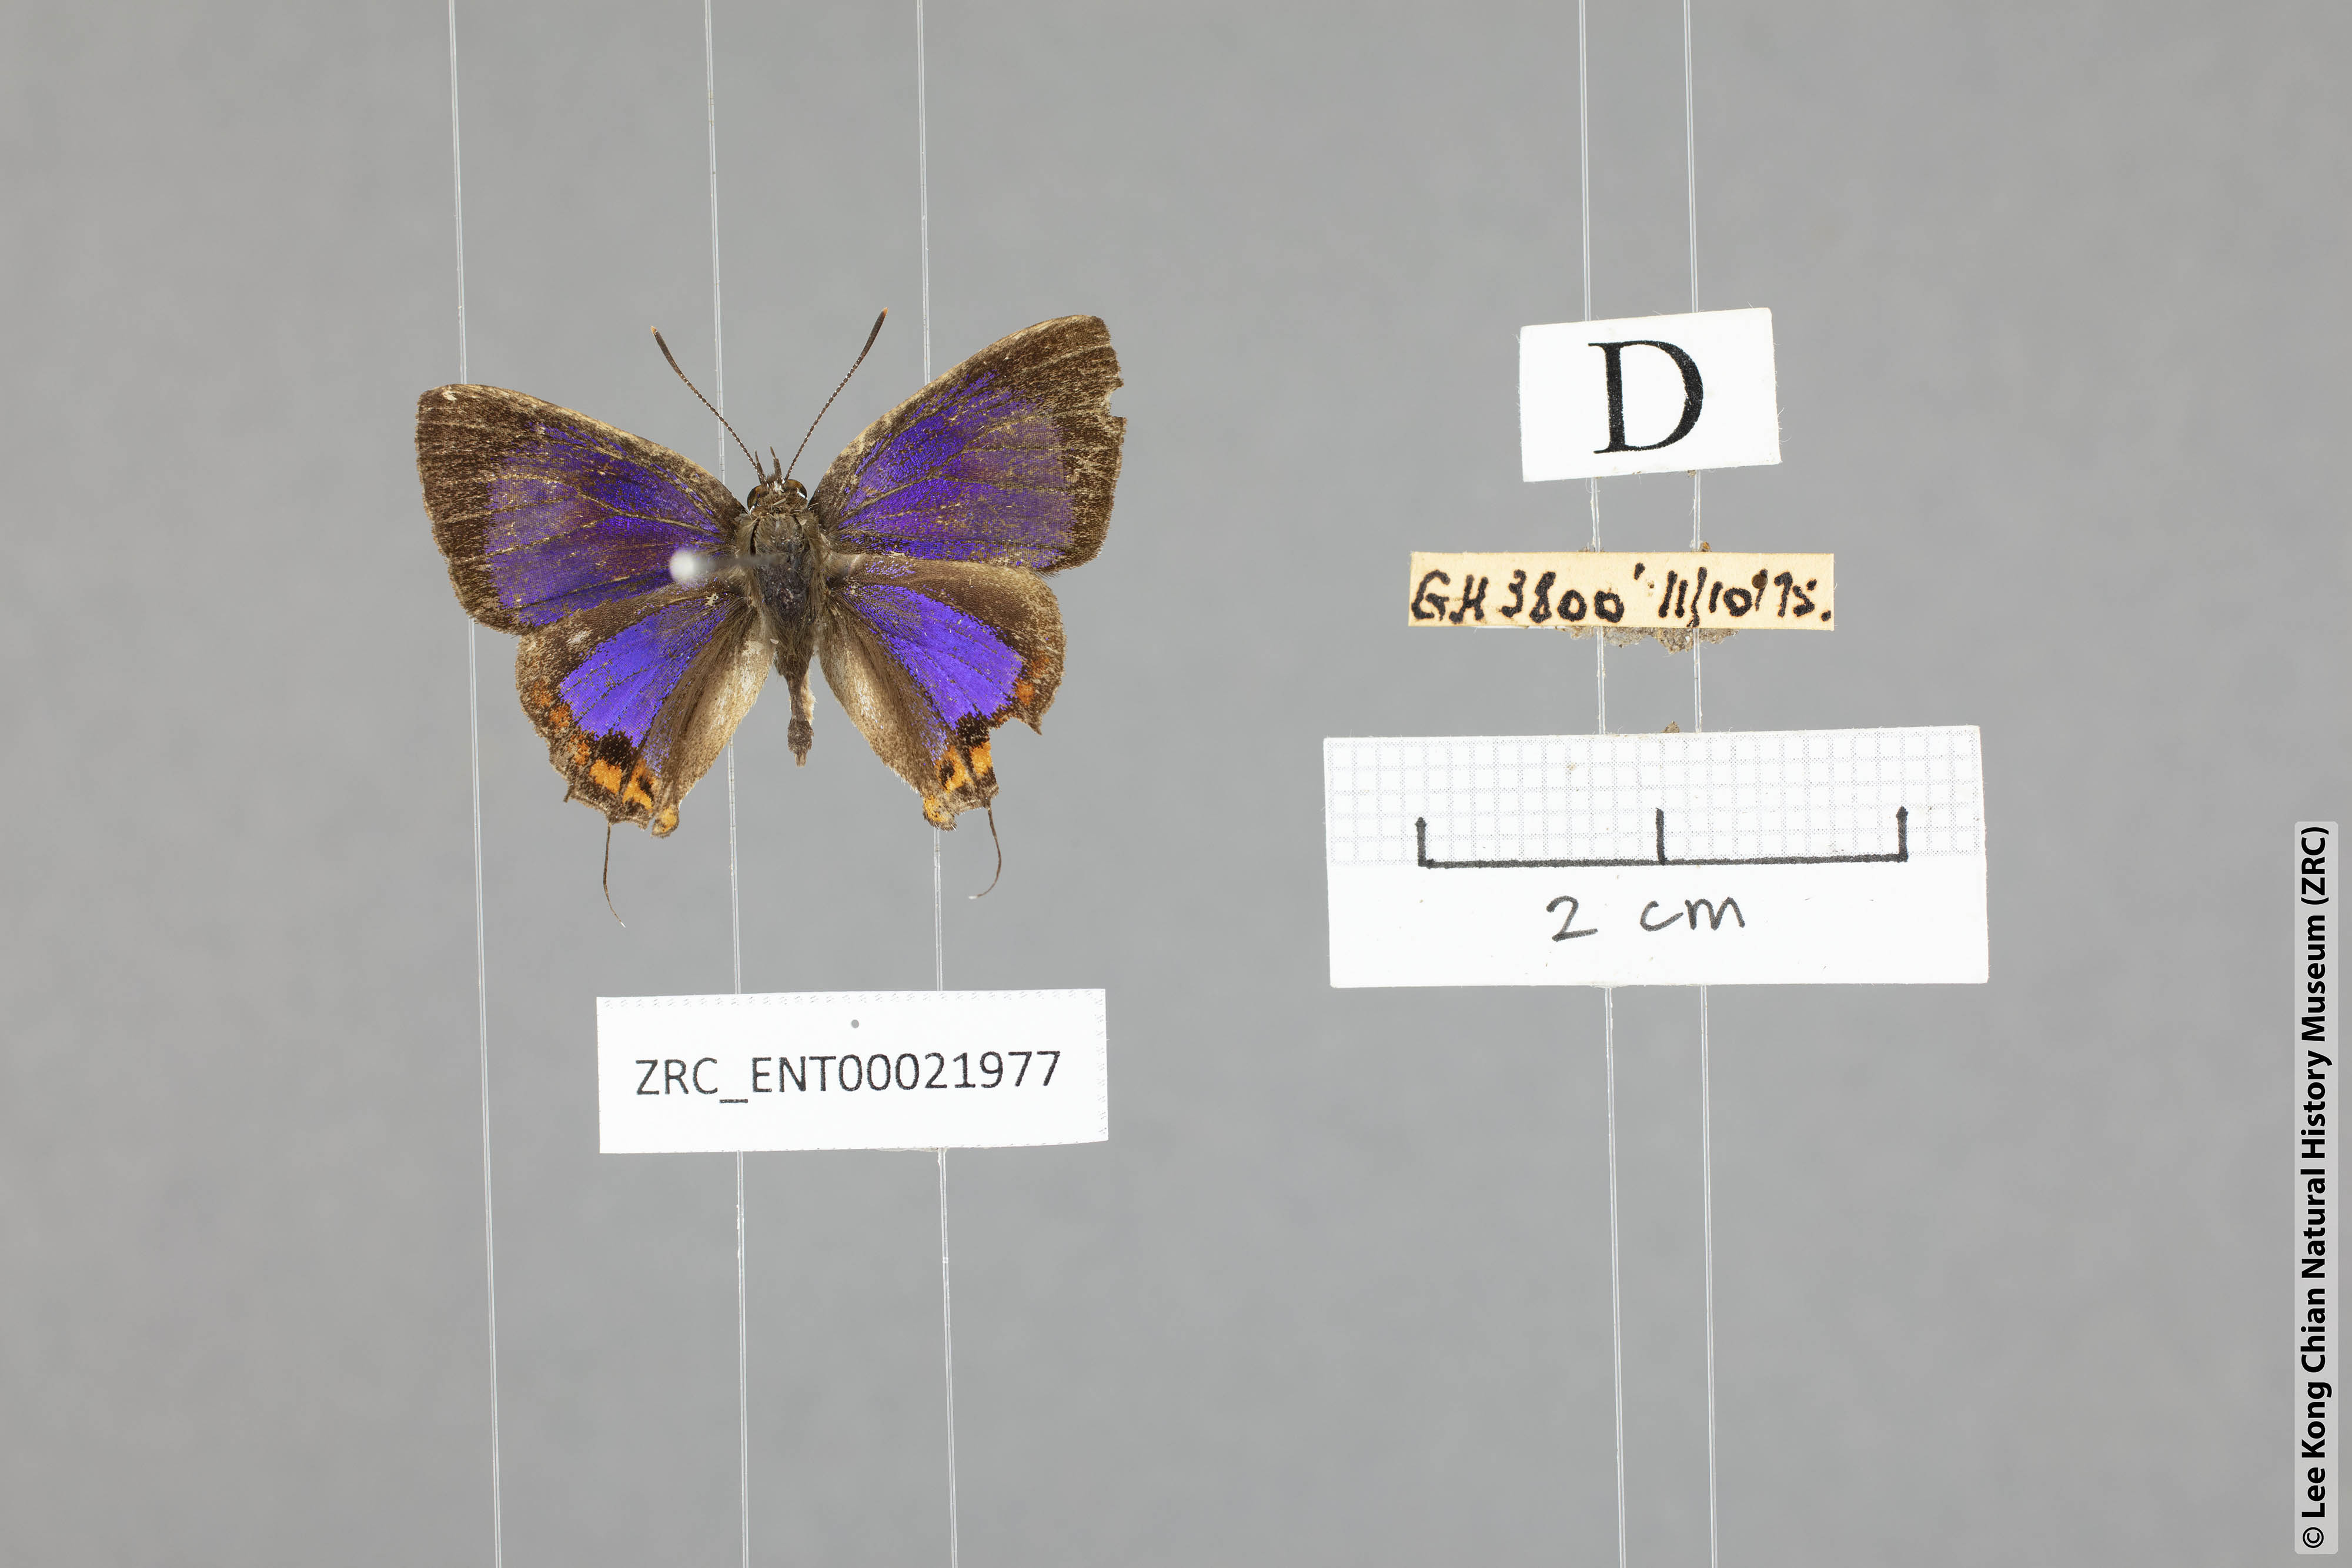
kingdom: Animalia
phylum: Arthropoda
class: Insecta
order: Lepidoptera
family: Lycaenidae
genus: Semanga
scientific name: Semanga superba
